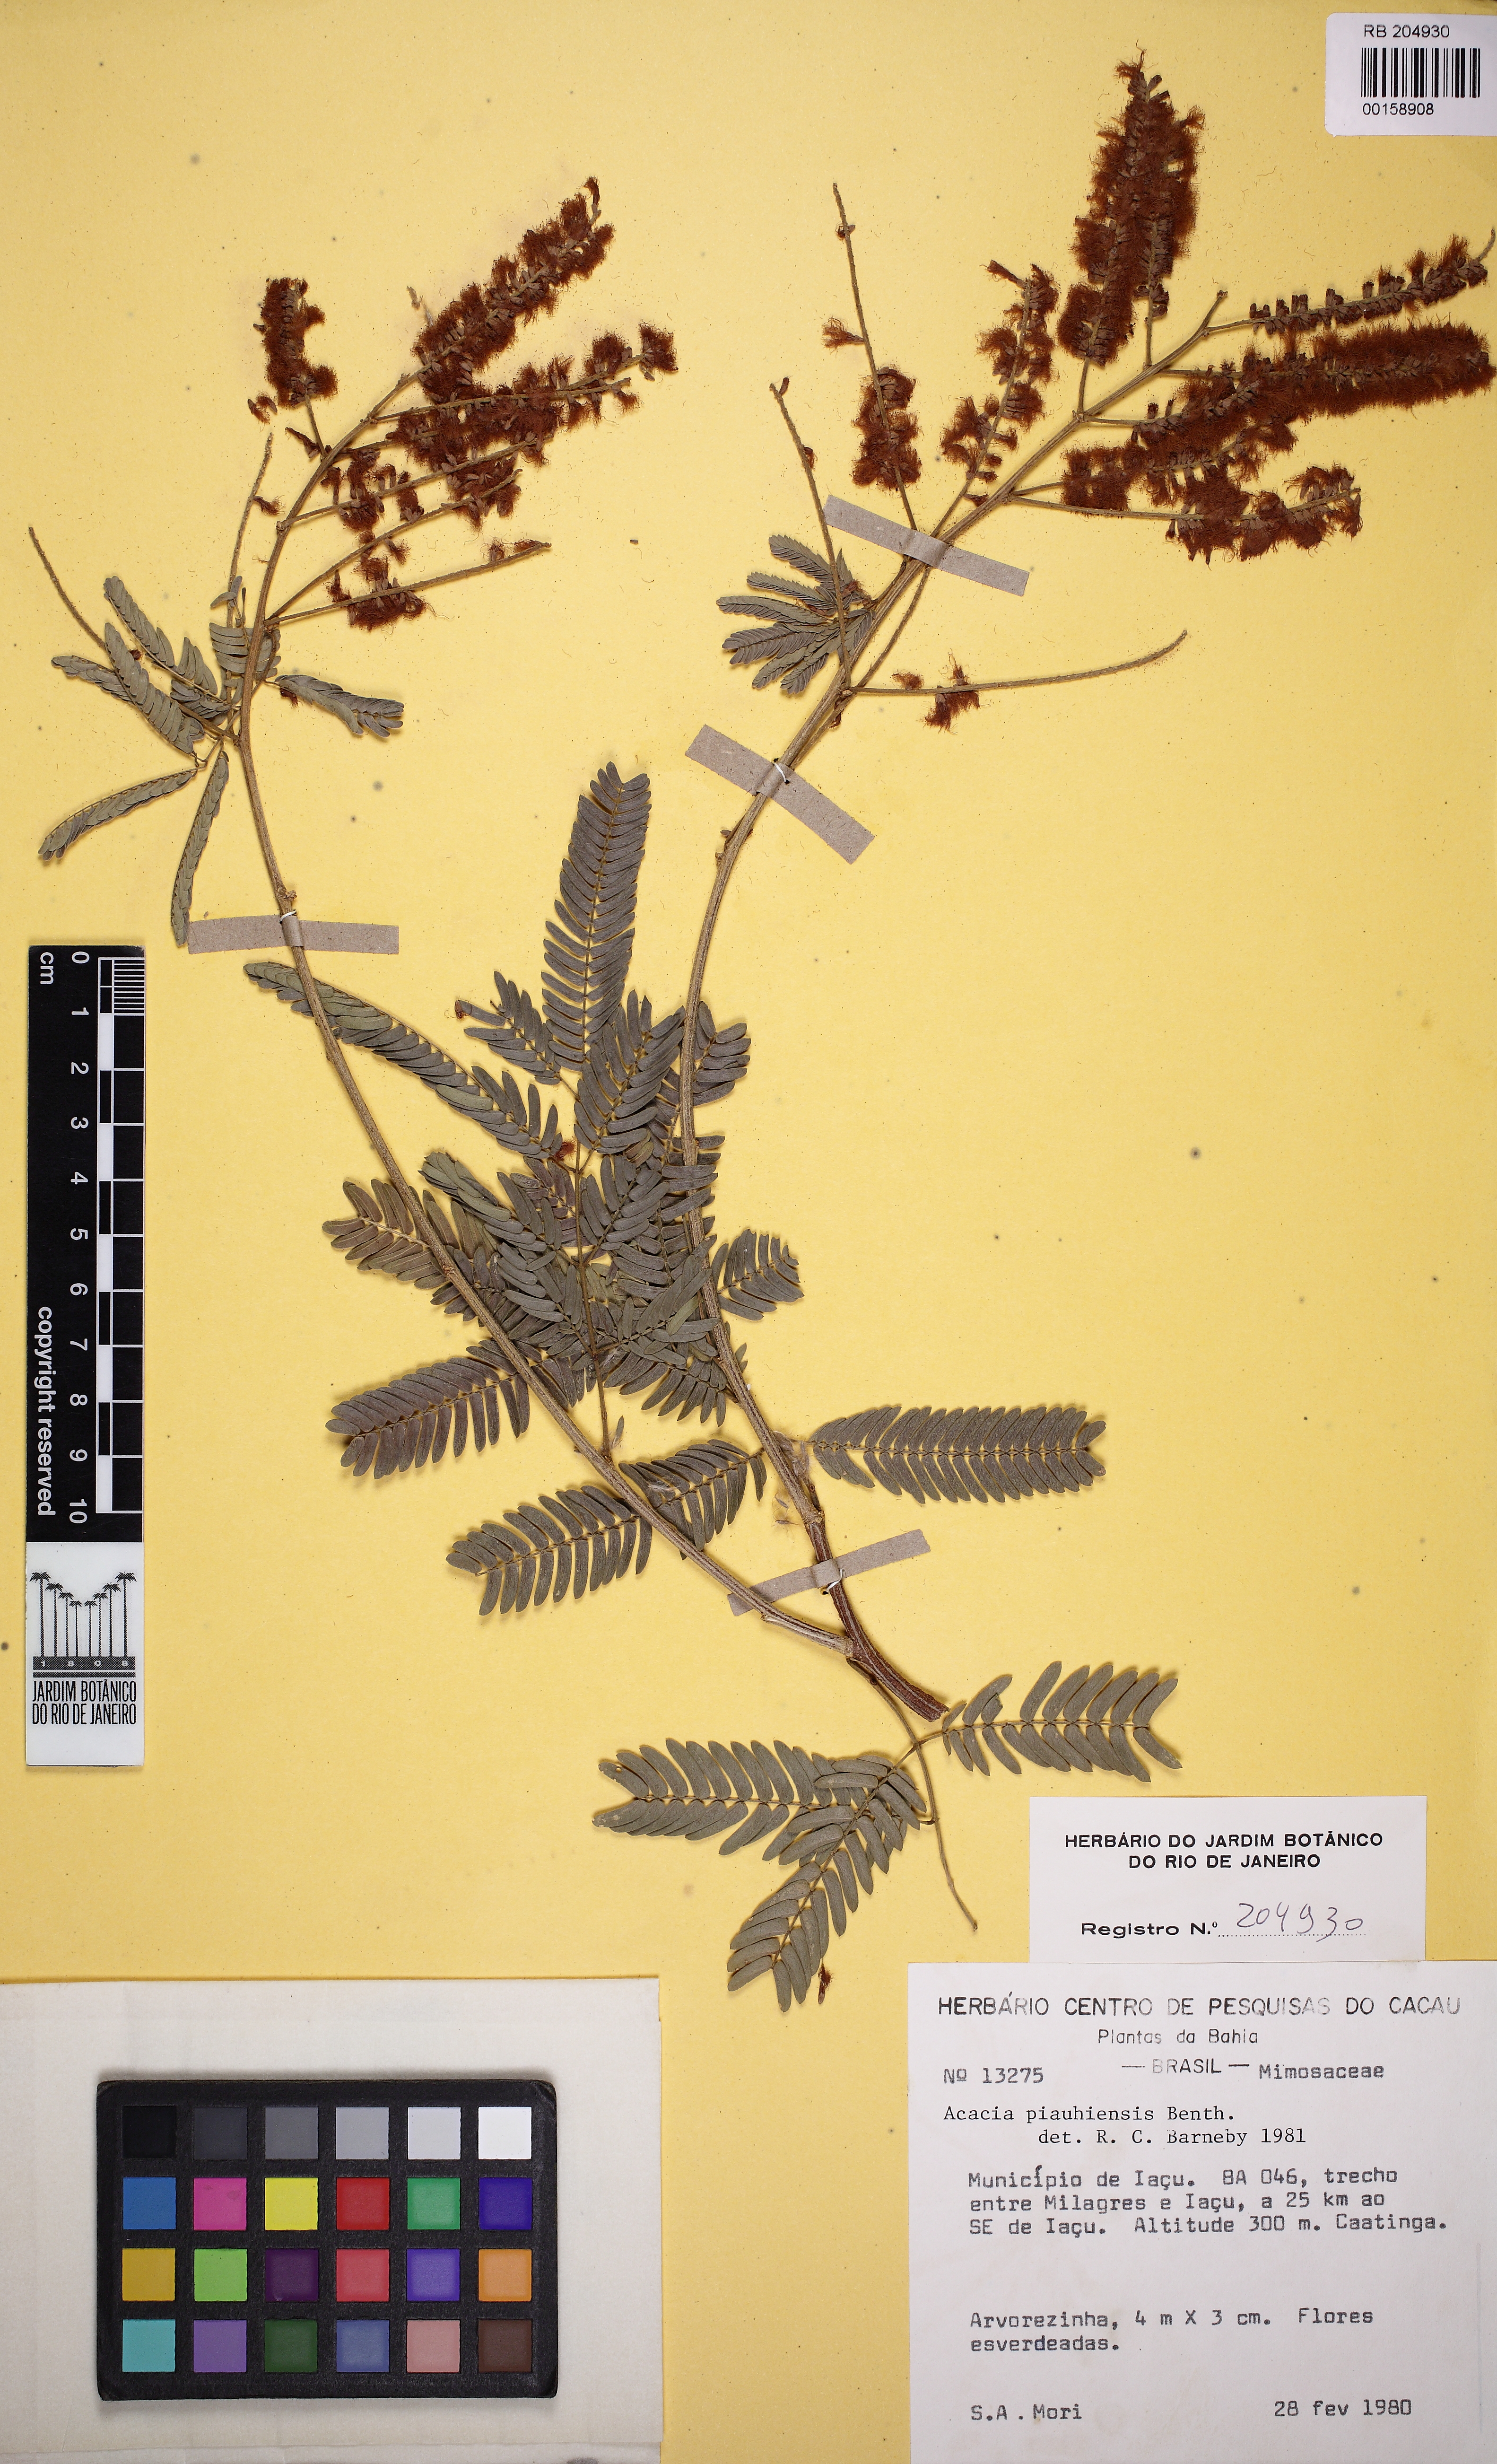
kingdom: Plantae
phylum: Tracheophyta
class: Magnoliopsida
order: Fabales
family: Fabaceae
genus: Senegalia
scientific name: Senegalia piauhiensis
